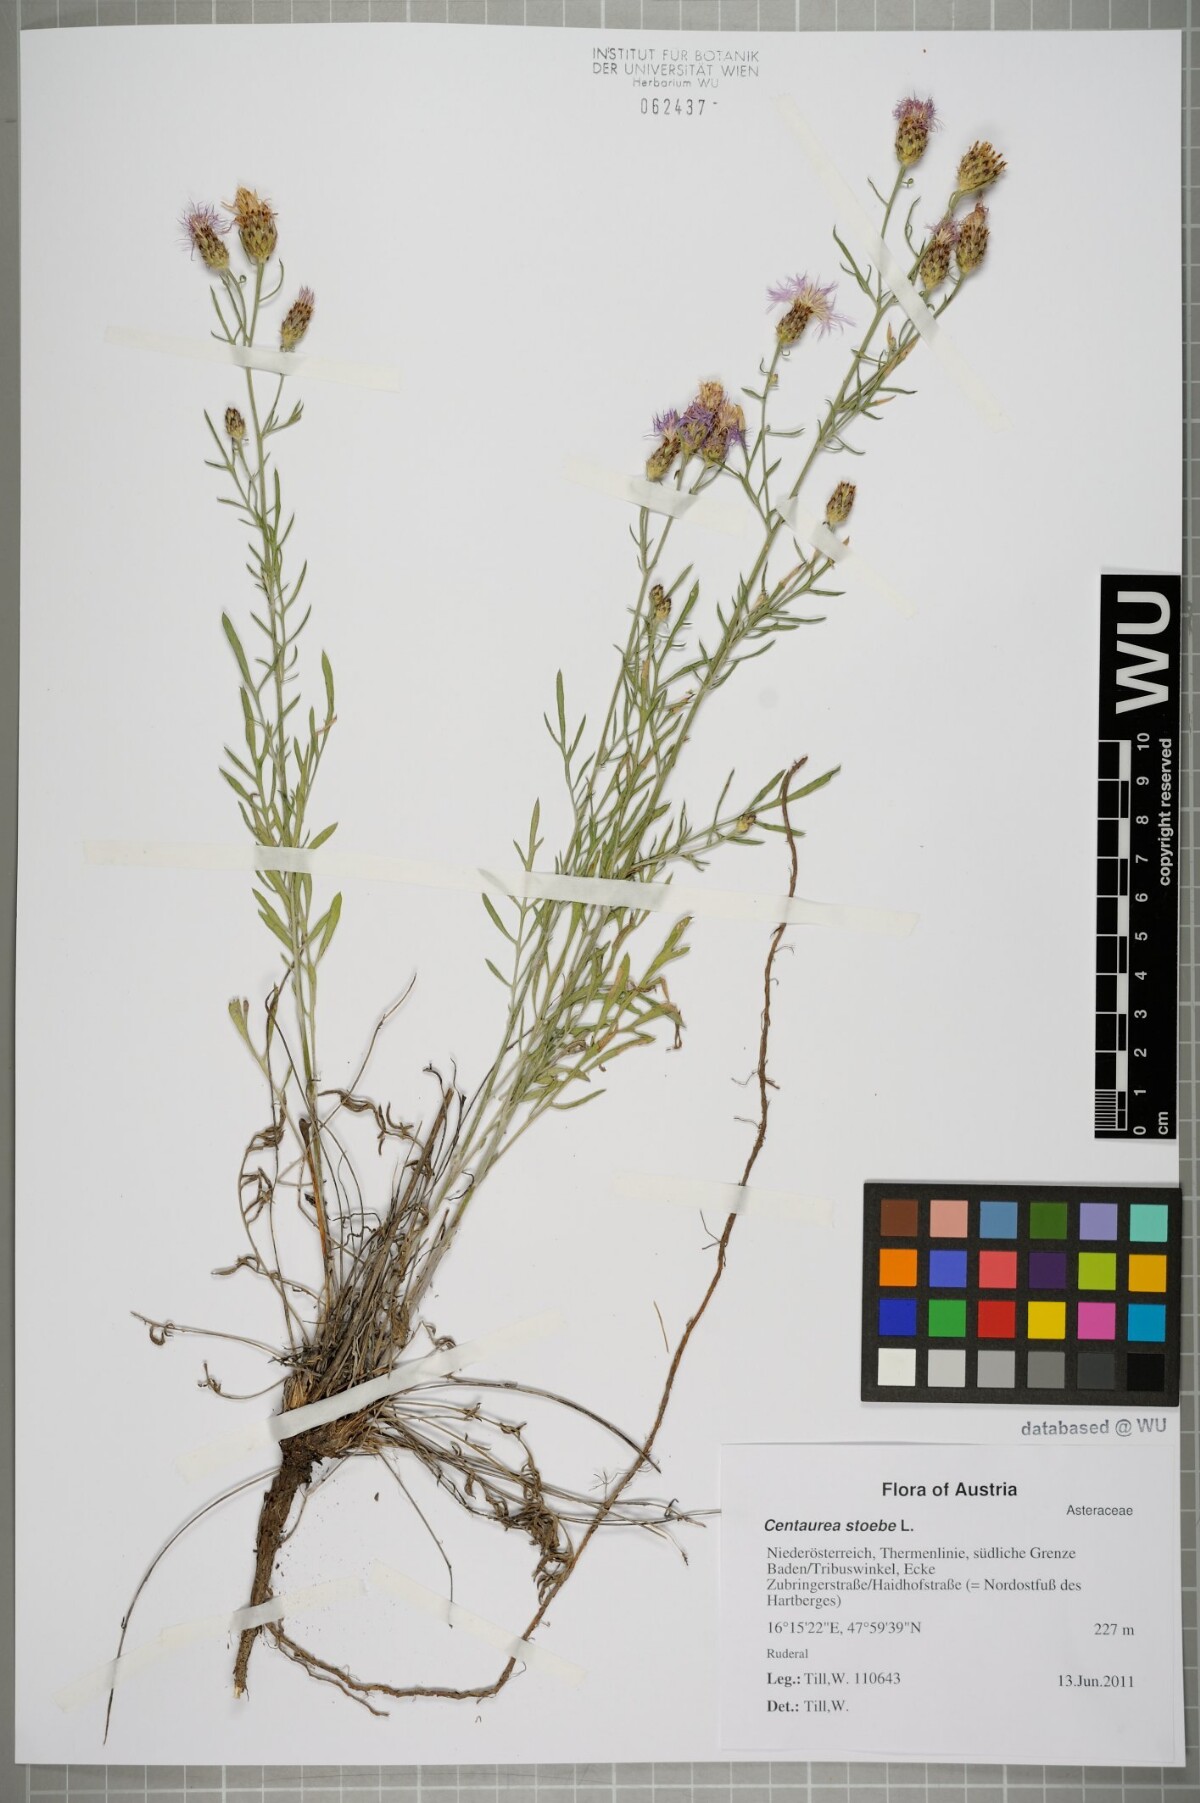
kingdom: Plantae
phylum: Tracheophyta
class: Magnoliopsida
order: Asterales
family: Asteraceae
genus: Centaurea
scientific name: Centaurea stoebe
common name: Spotted knapweed
